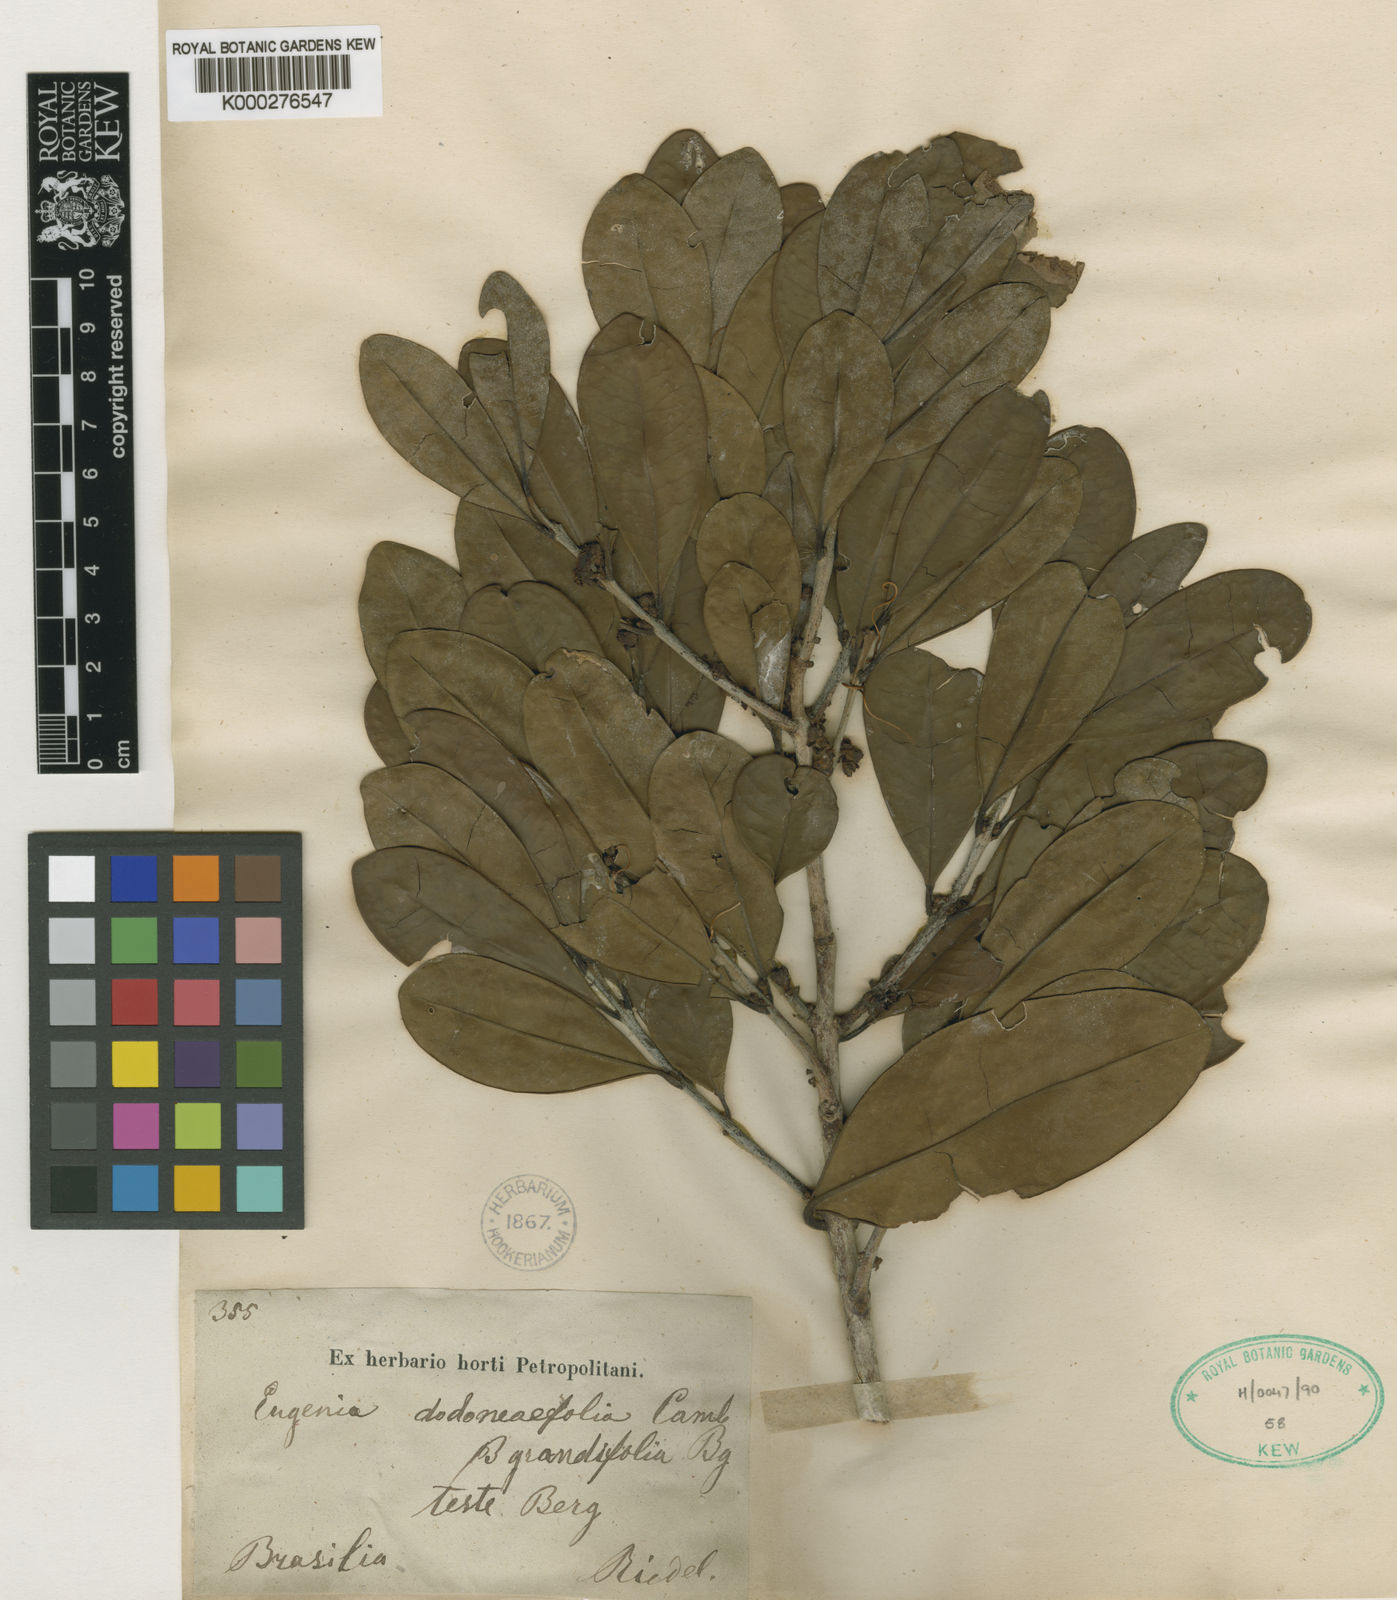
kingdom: Plantae
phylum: Tracheophyta
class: Magnoliopsida
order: Myrtales
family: Myrtaceae
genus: Eugenia
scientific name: Eugenia dodonaeifolia
